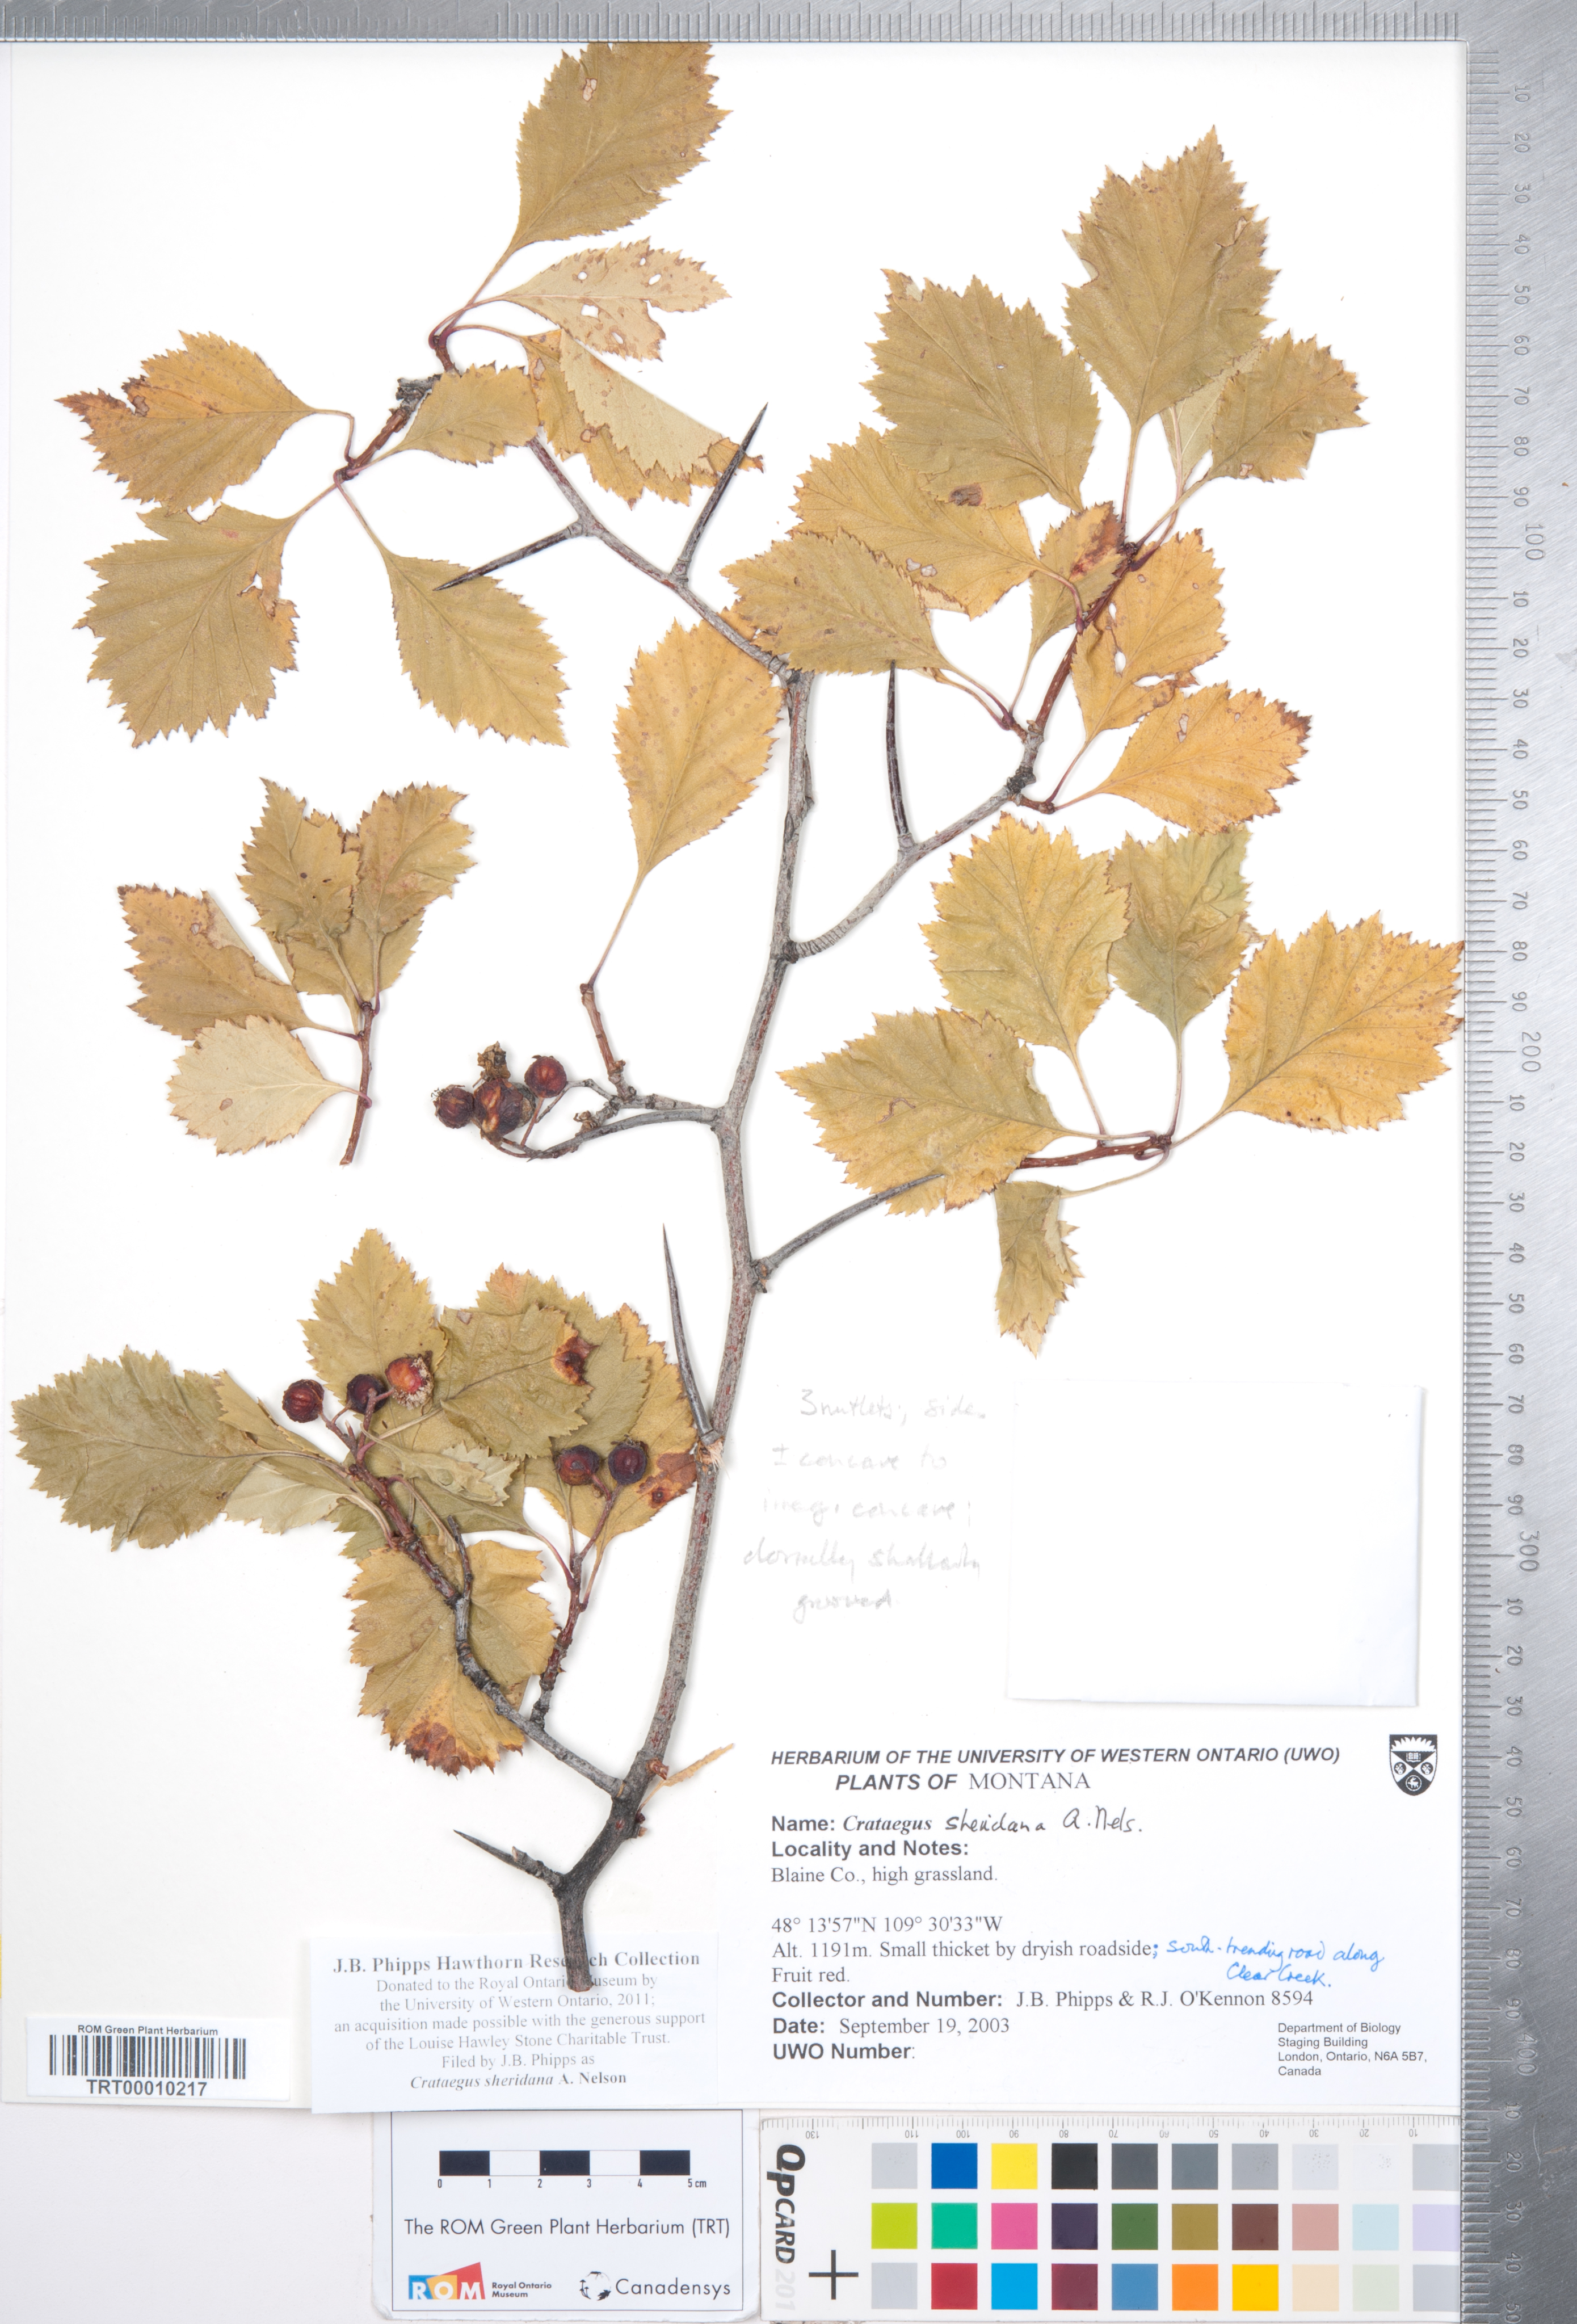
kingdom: Plantae
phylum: Tracheophyta
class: Magnoliopsida
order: Rosales
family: Rosaceae
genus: Crataegus
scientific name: Crataegus chrysocarpa
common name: Fire-berry hawthorn
